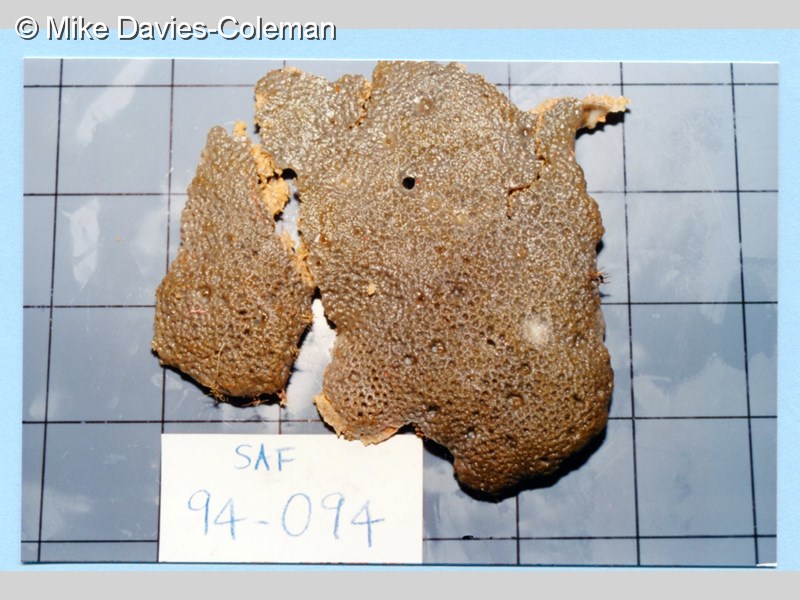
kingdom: Animalia
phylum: Porifera
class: Demospongiae
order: Clionaida
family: Spirastrellidae
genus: Spirastrella
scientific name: Spirastrella
